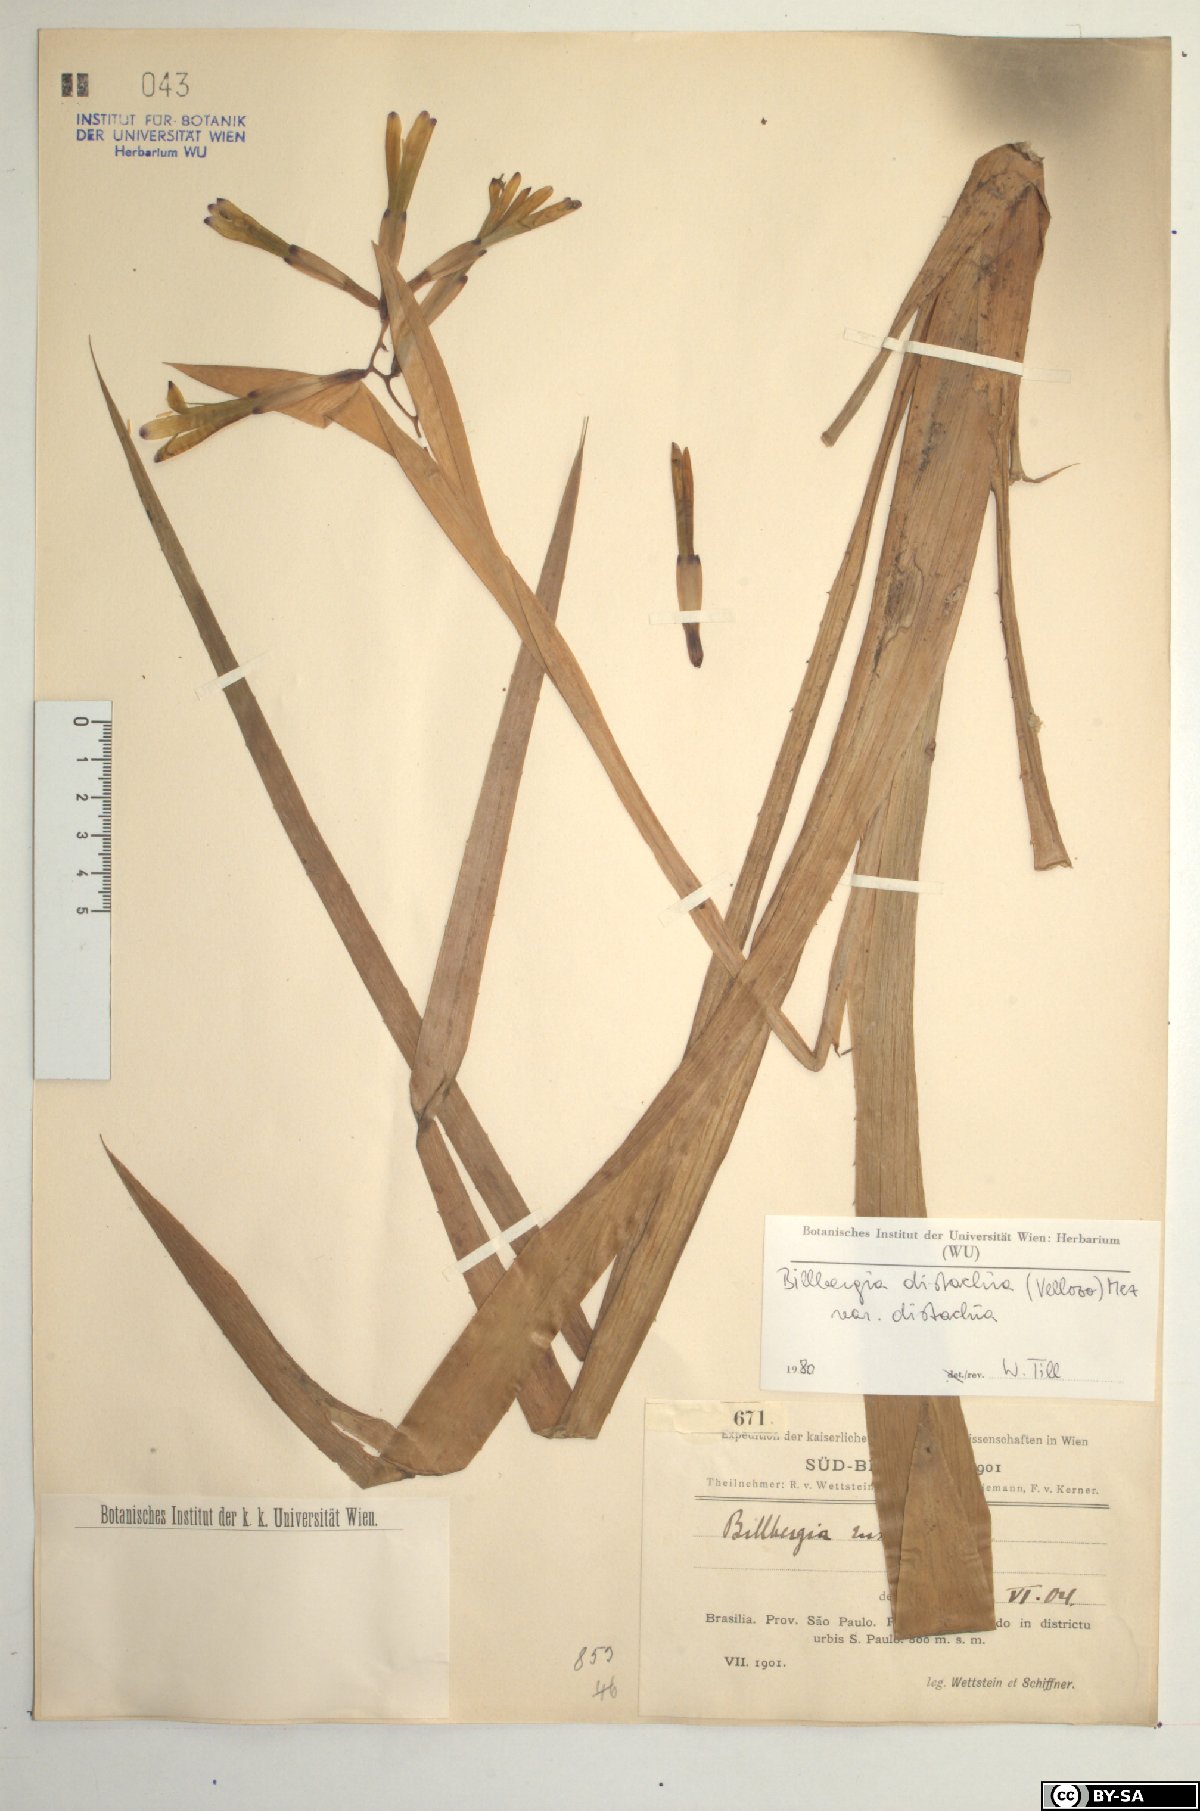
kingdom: Plantae
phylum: Tracheophyta
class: Liliopsida
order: Poales
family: Bromeliaceae
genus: Billbergia
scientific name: Billbergia distachia
